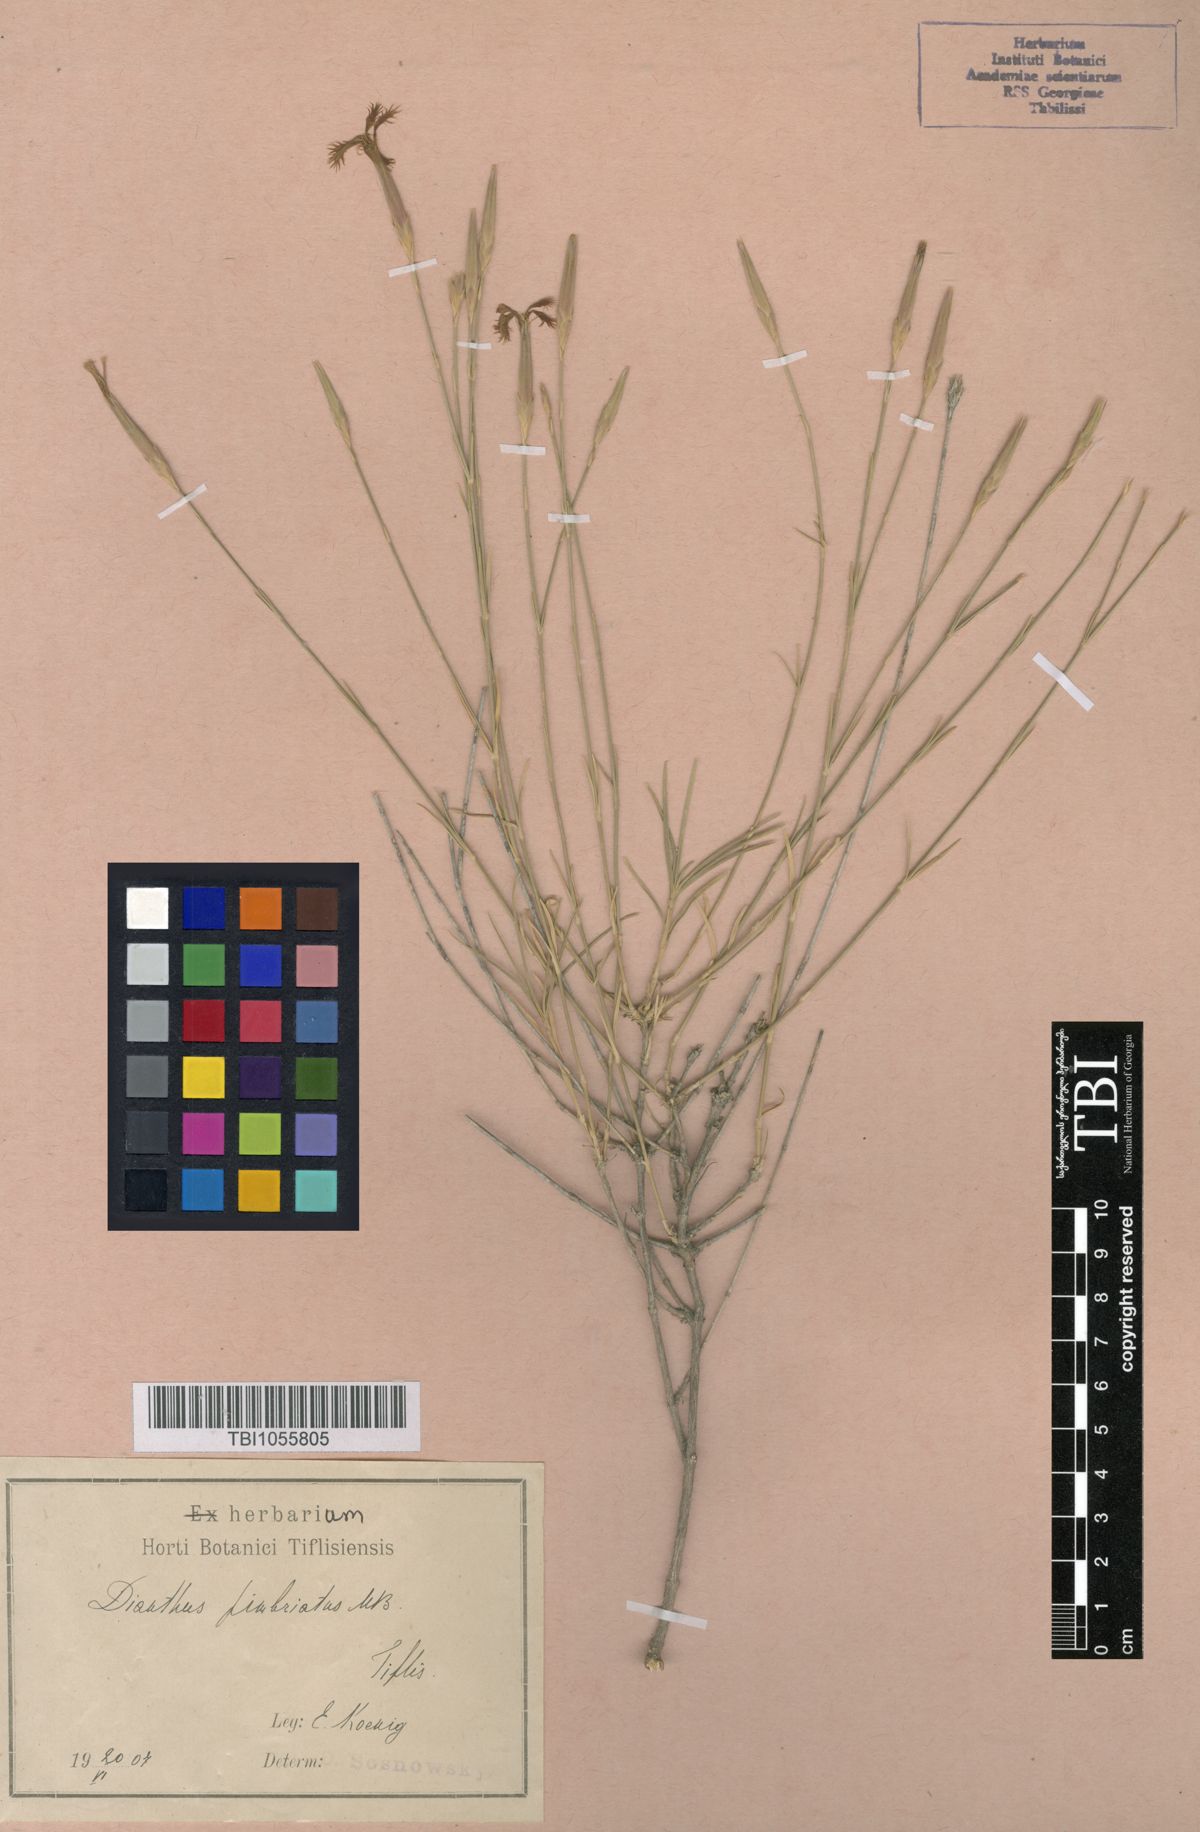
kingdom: Plantae
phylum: Tracheophyta
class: Magnoliopsida
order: Caryophyllales
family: Caryophyllaceae
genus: Dianthus
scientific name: Dianthus orientalis
